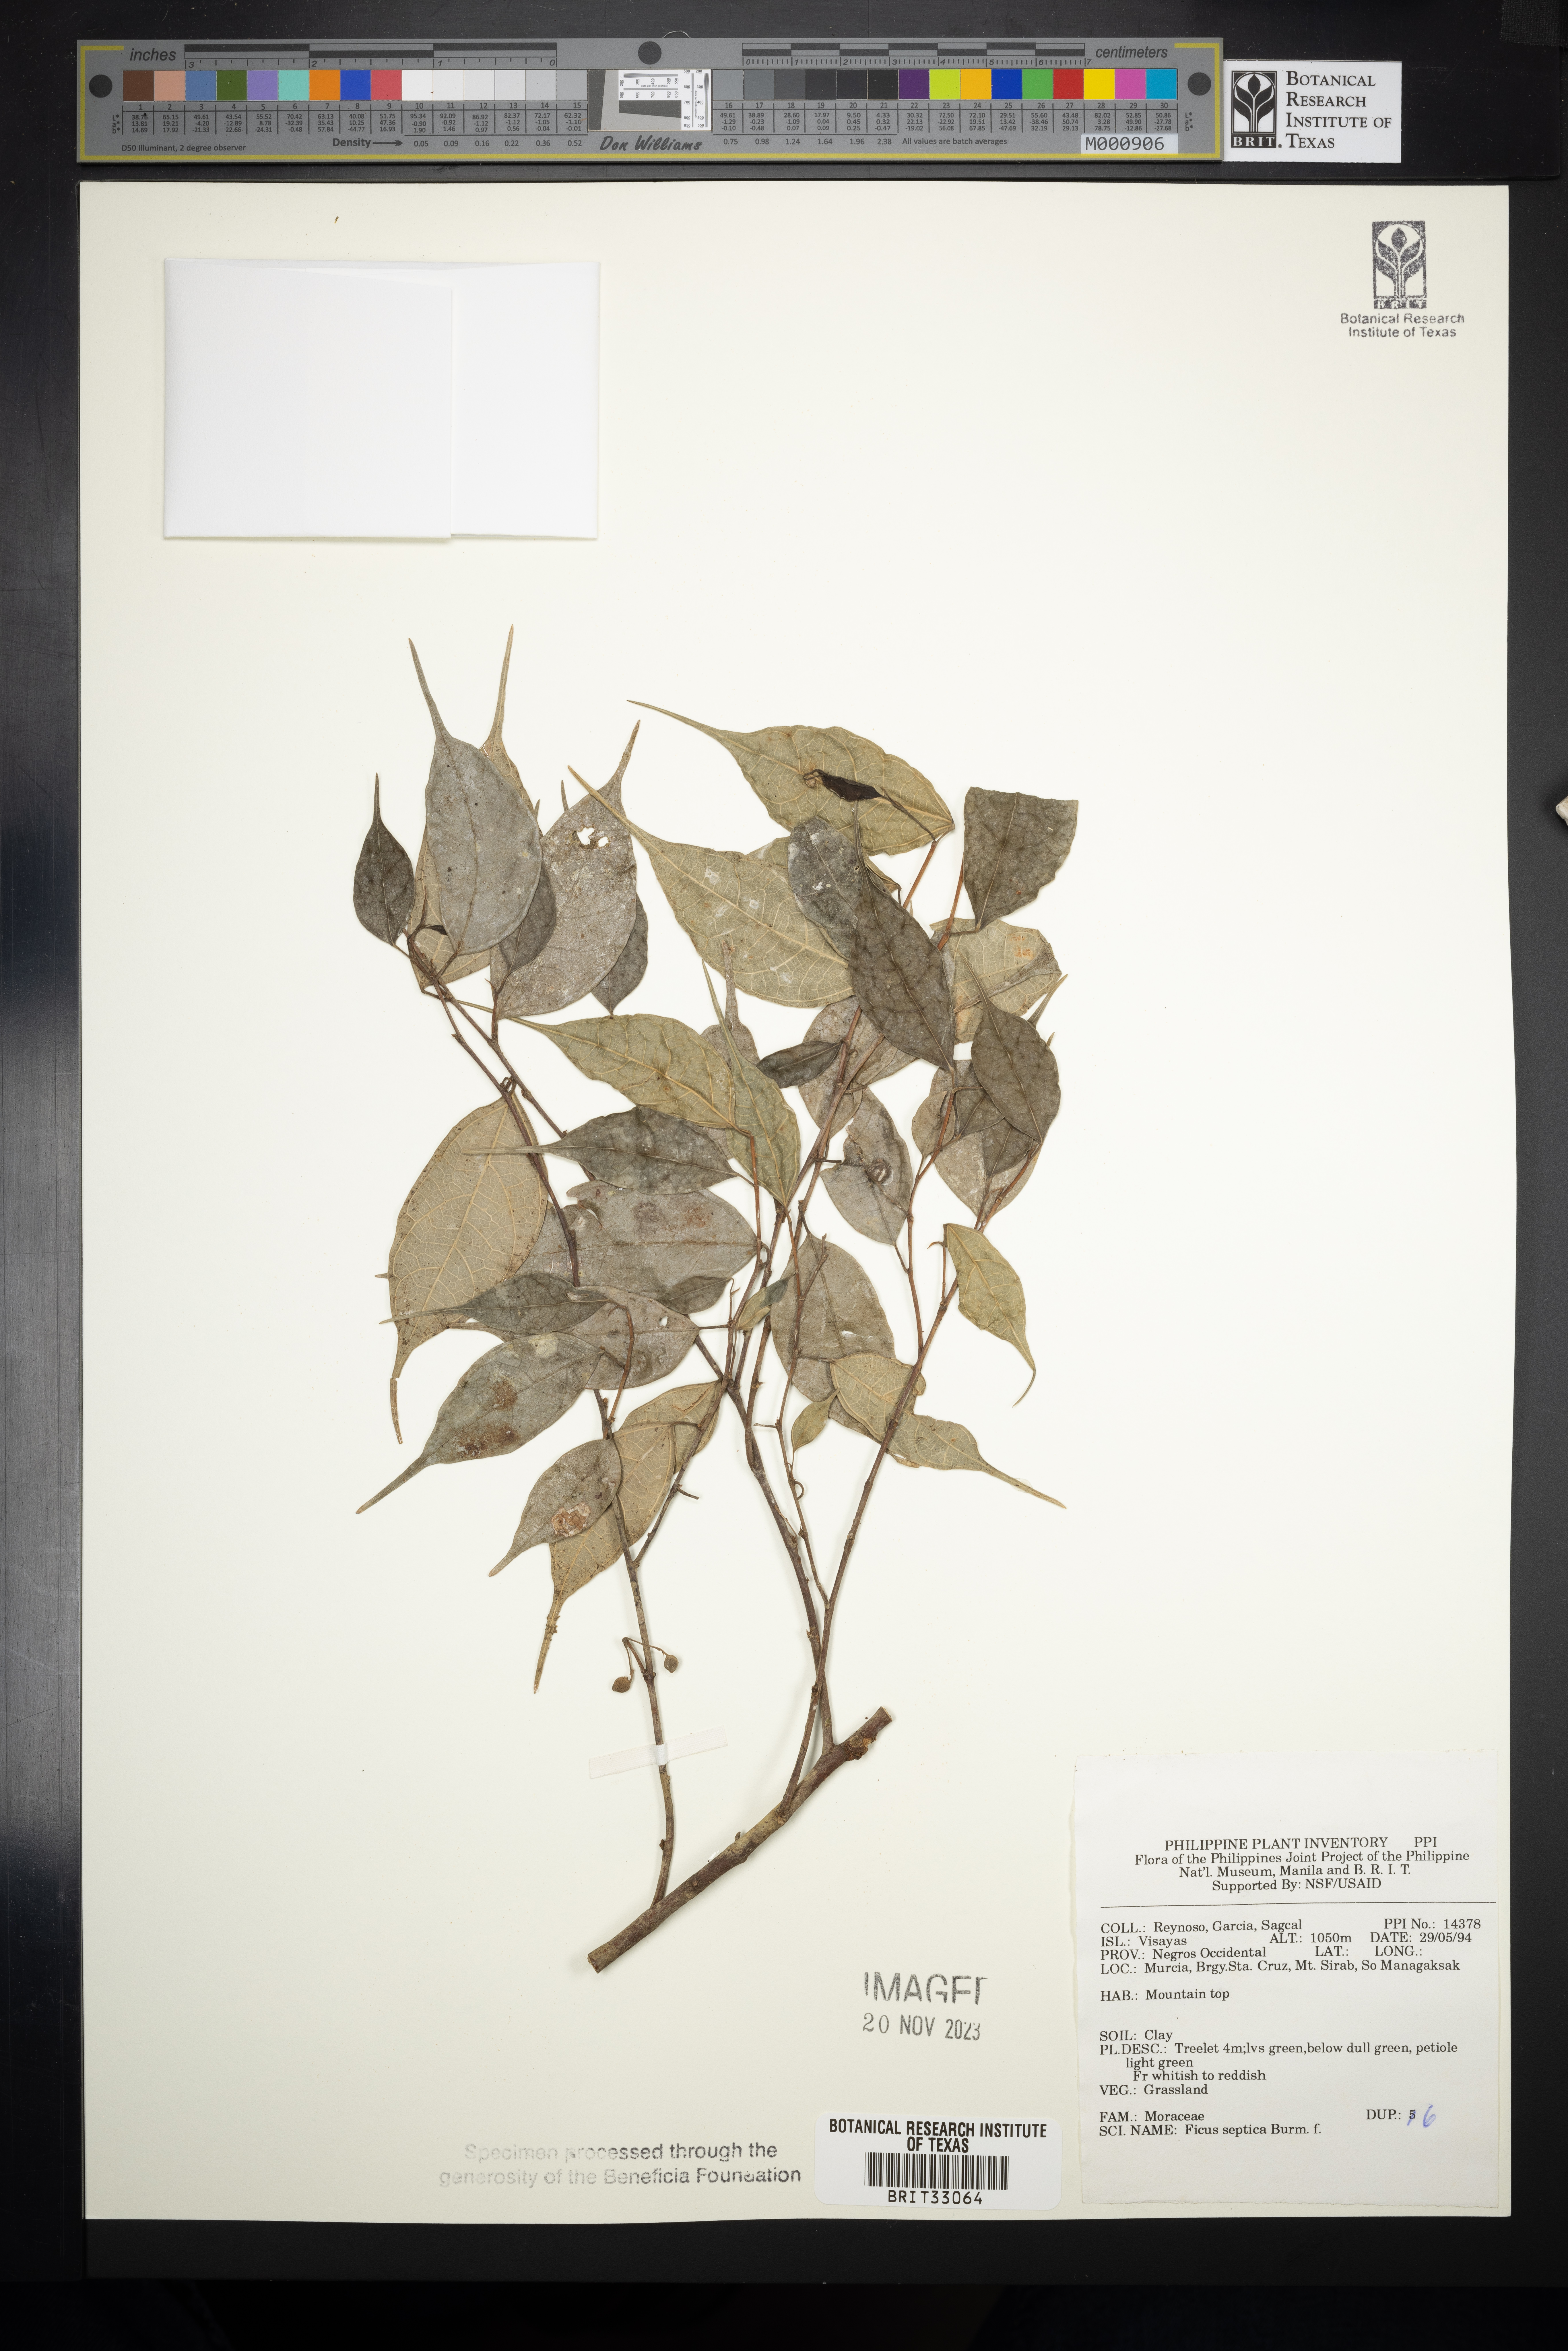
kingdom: Plantae
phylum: Tracheophyta
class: Magnoliopsida
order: Rosales
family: Moraceae
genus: Ficus
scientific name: Ficus septica
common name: Septic fig
